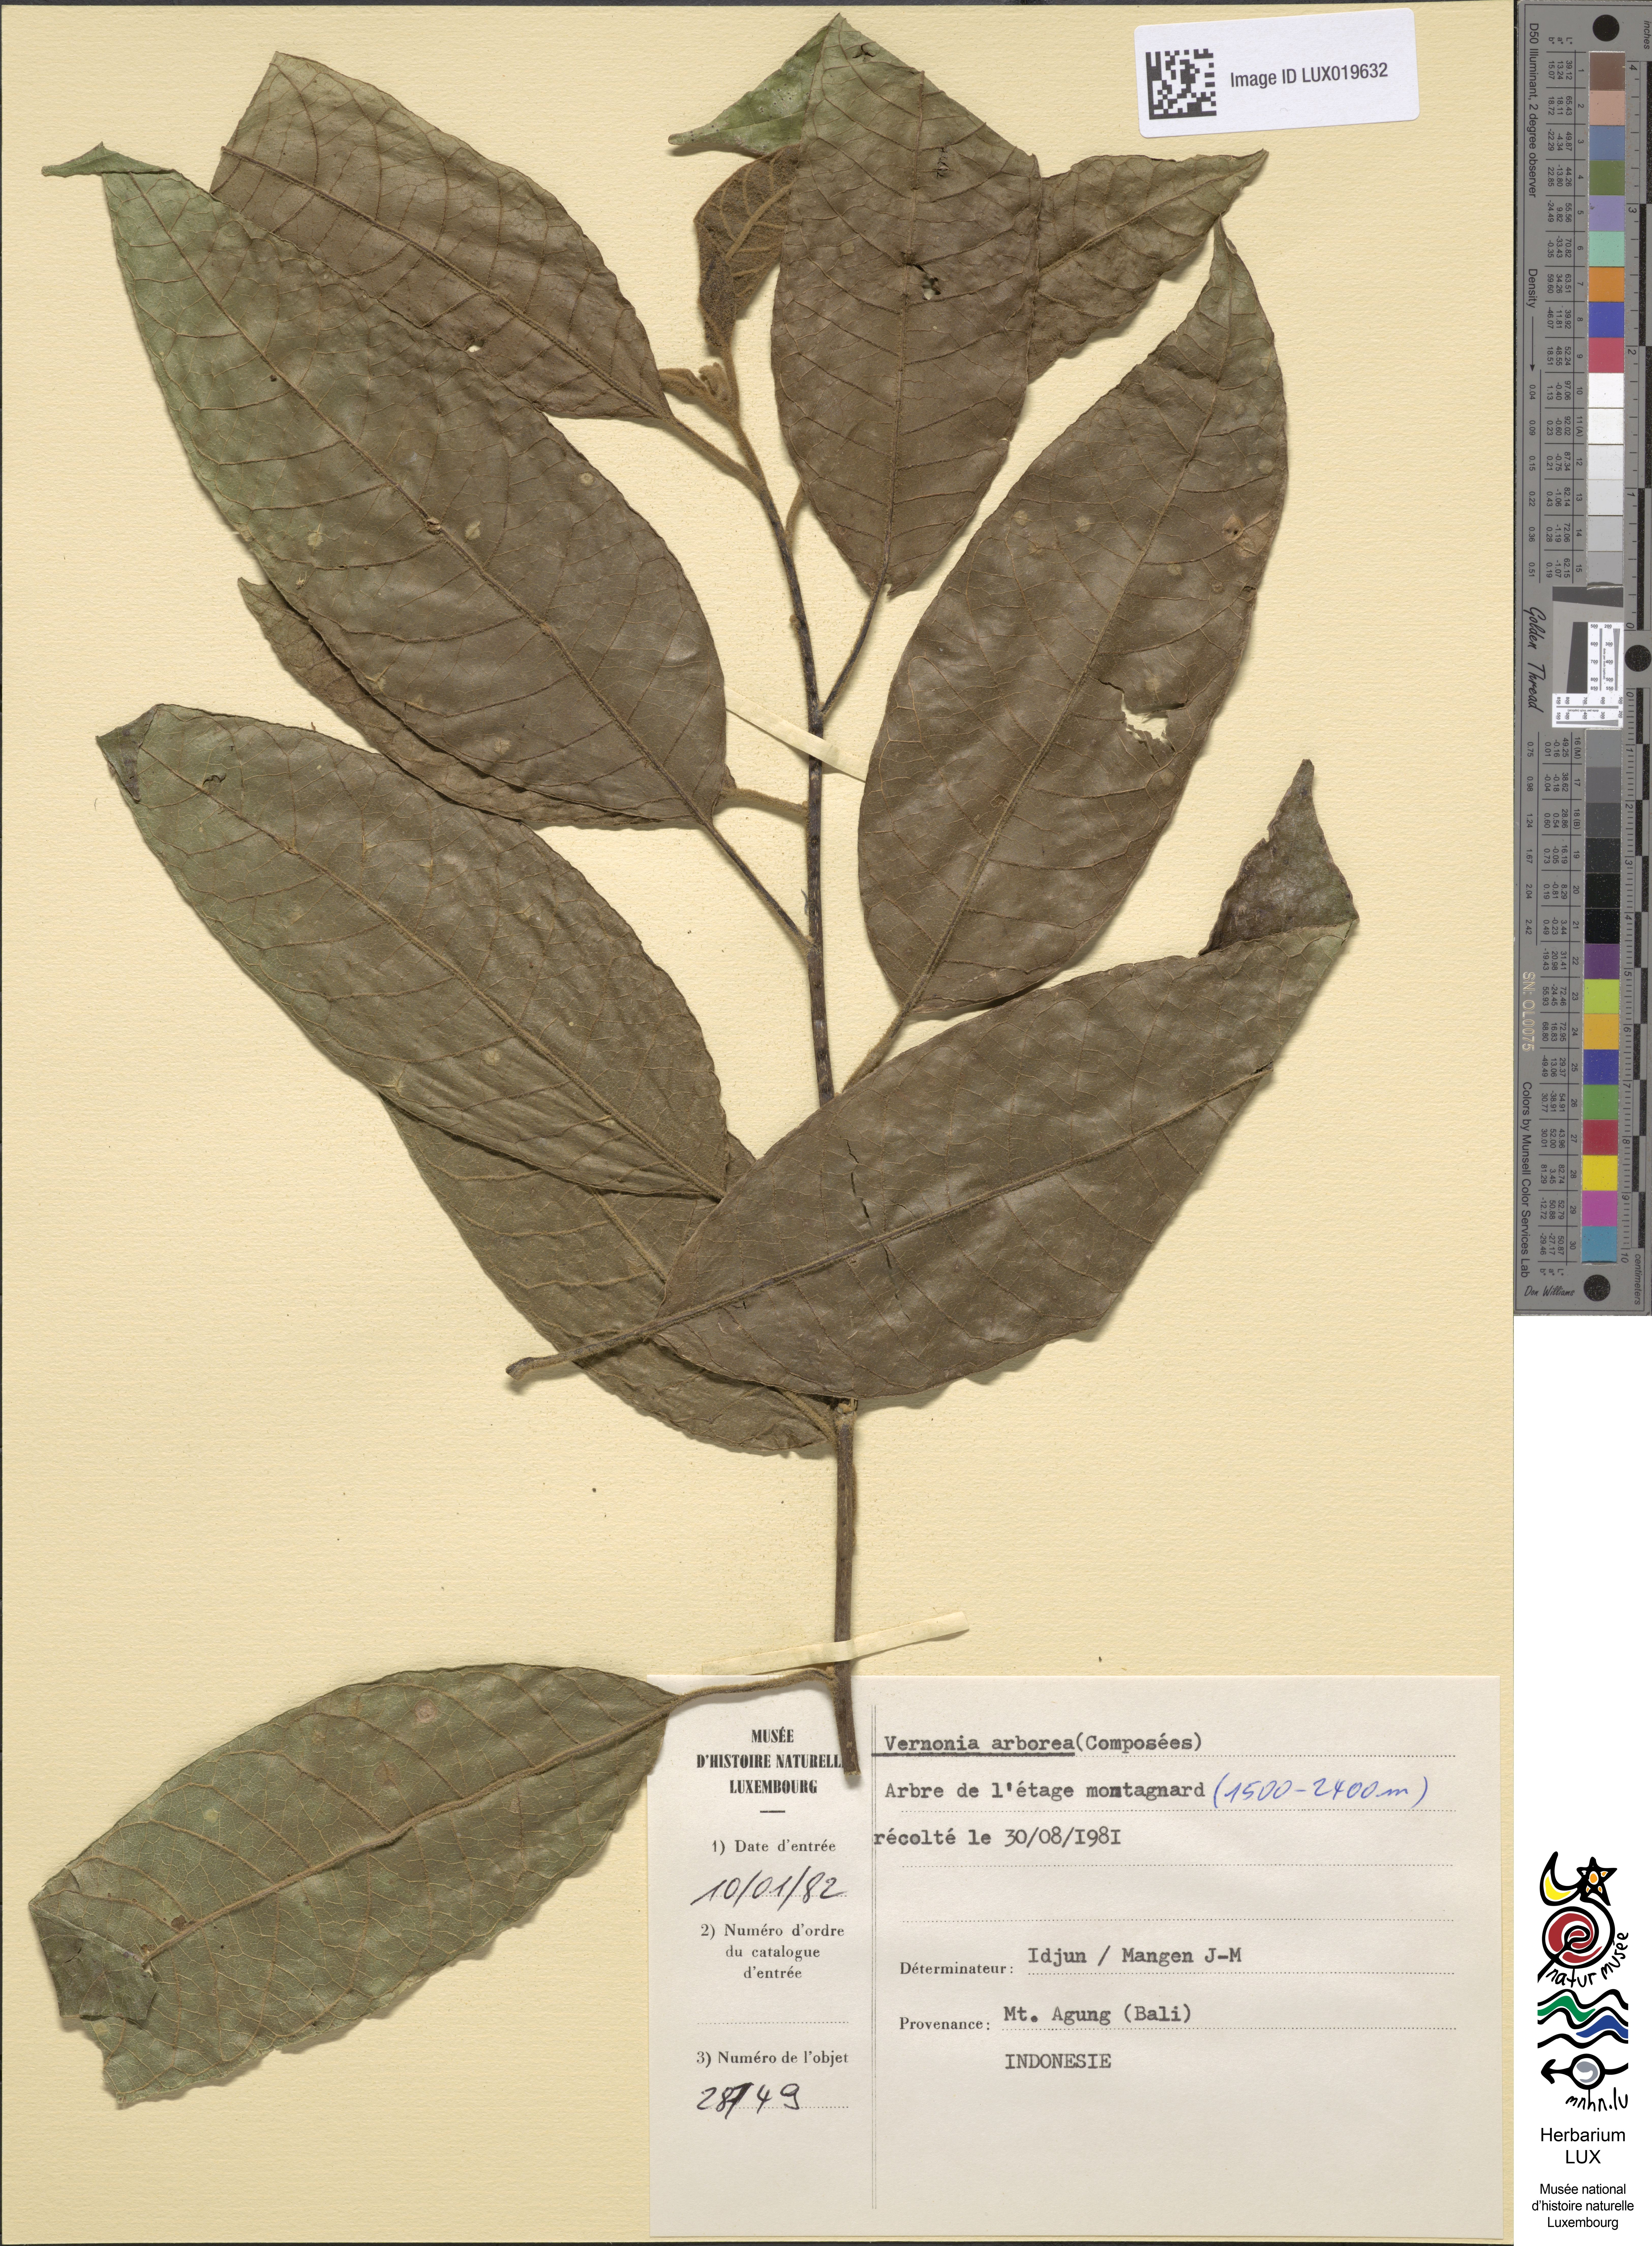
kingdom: Plantae
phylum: Tracheophyta
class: Magnoliopsida
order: Asterales
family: Asteraceae
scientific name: Asteraceae
